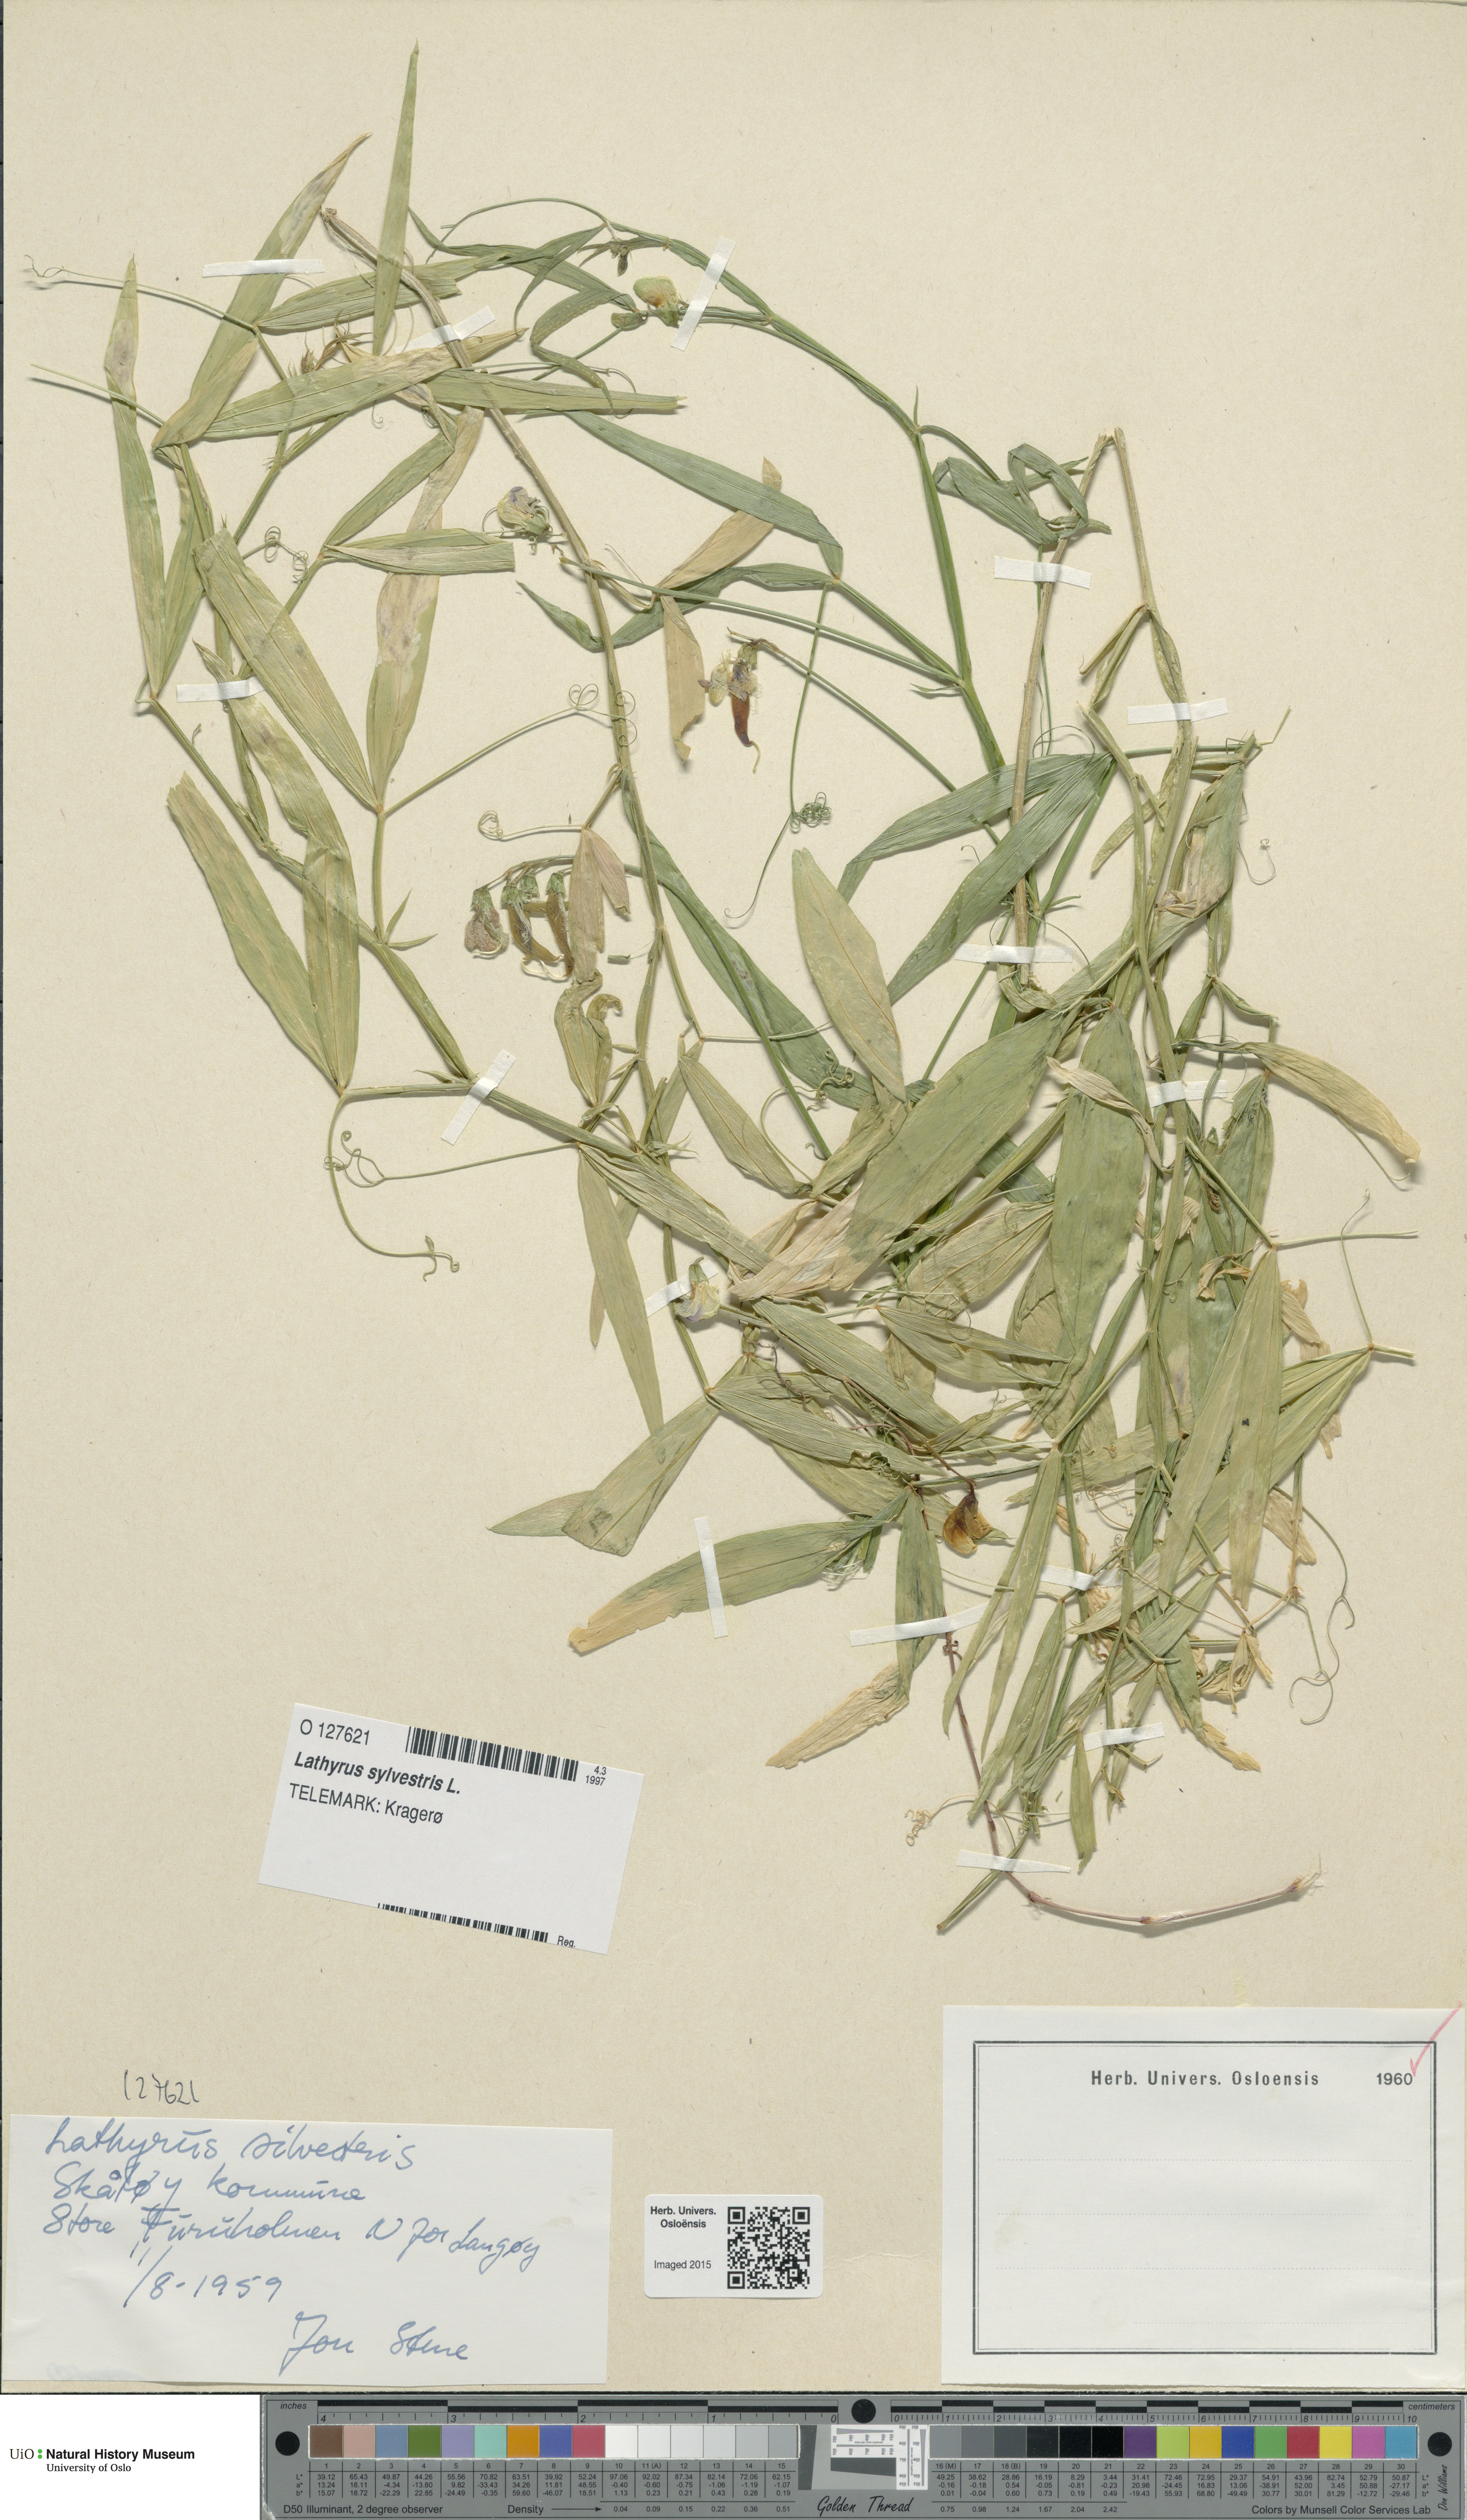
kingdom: Plantae
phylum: Tracheophyta
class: Magnoliopsida
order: Fabales
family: Fabaceae
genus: Lathyrus
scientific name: Lathyrus sylvestris
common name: Flat pea
